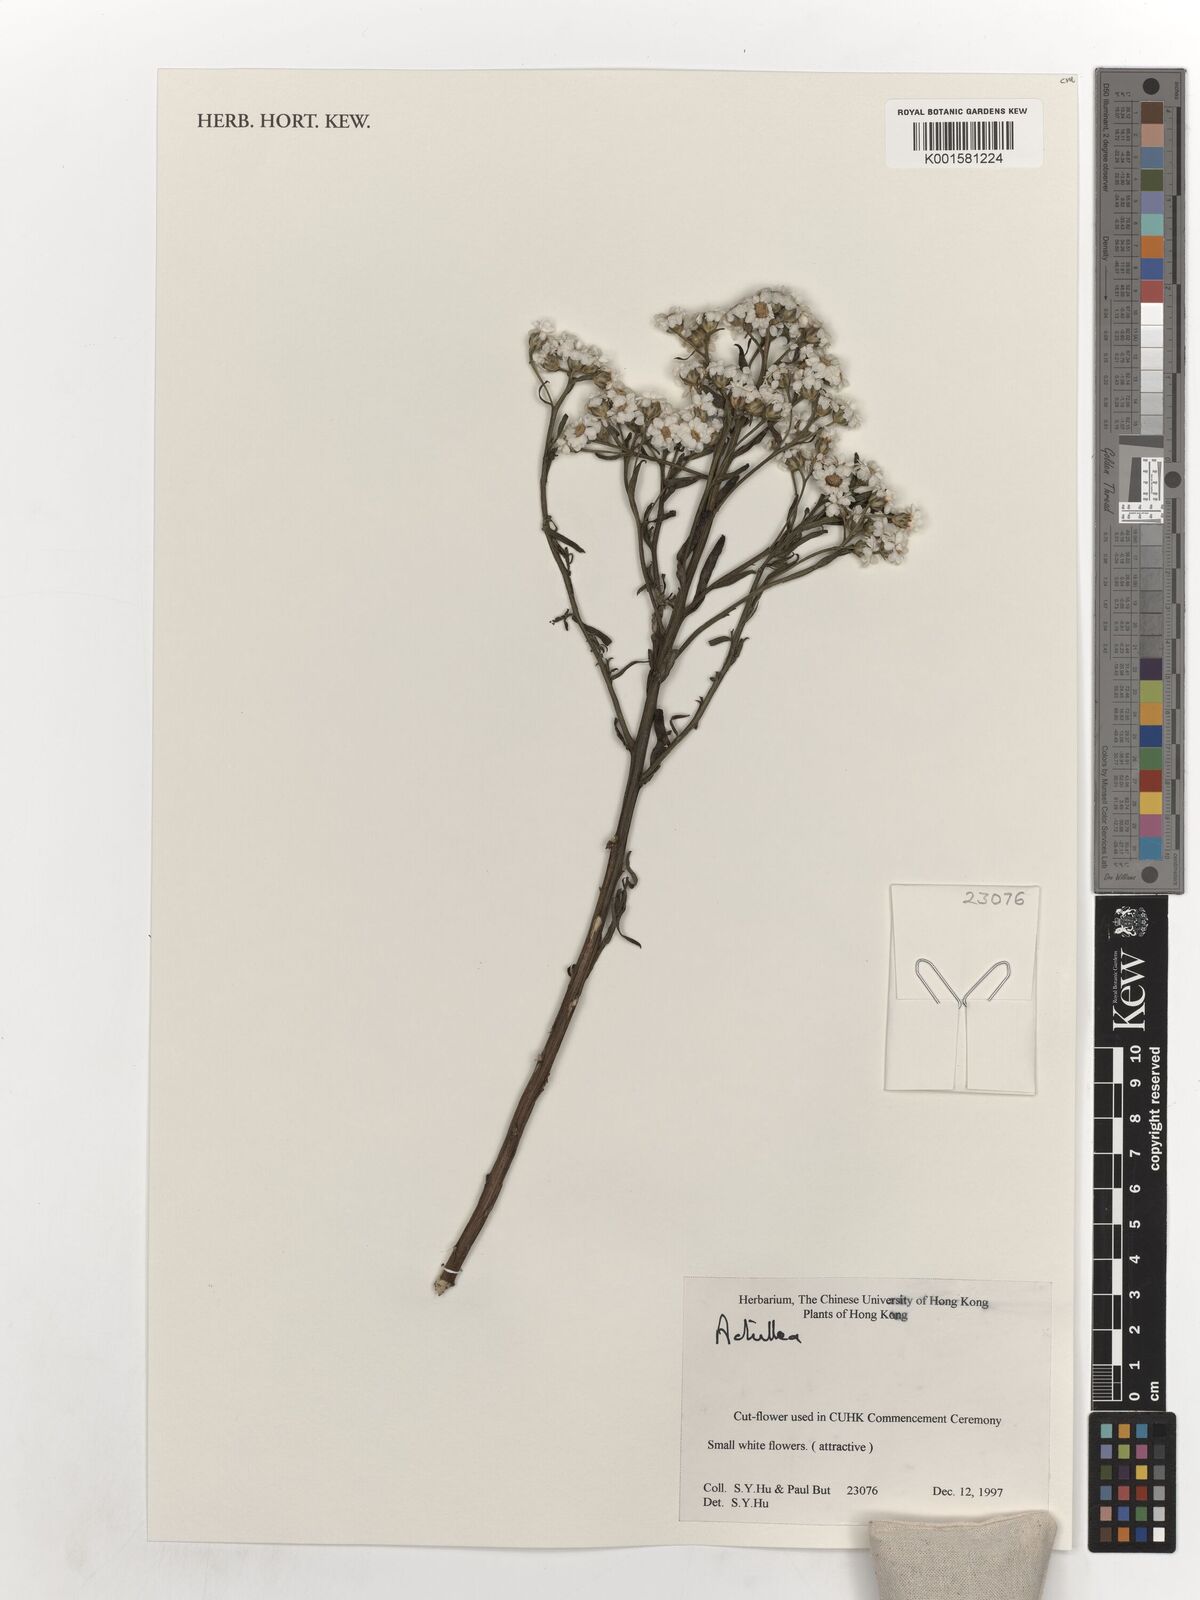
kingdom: Plantae
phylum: Tracheophyta
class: Magnoliopsida
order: Asterales
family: Asteraceae
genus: Achillea
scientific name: Achillea
